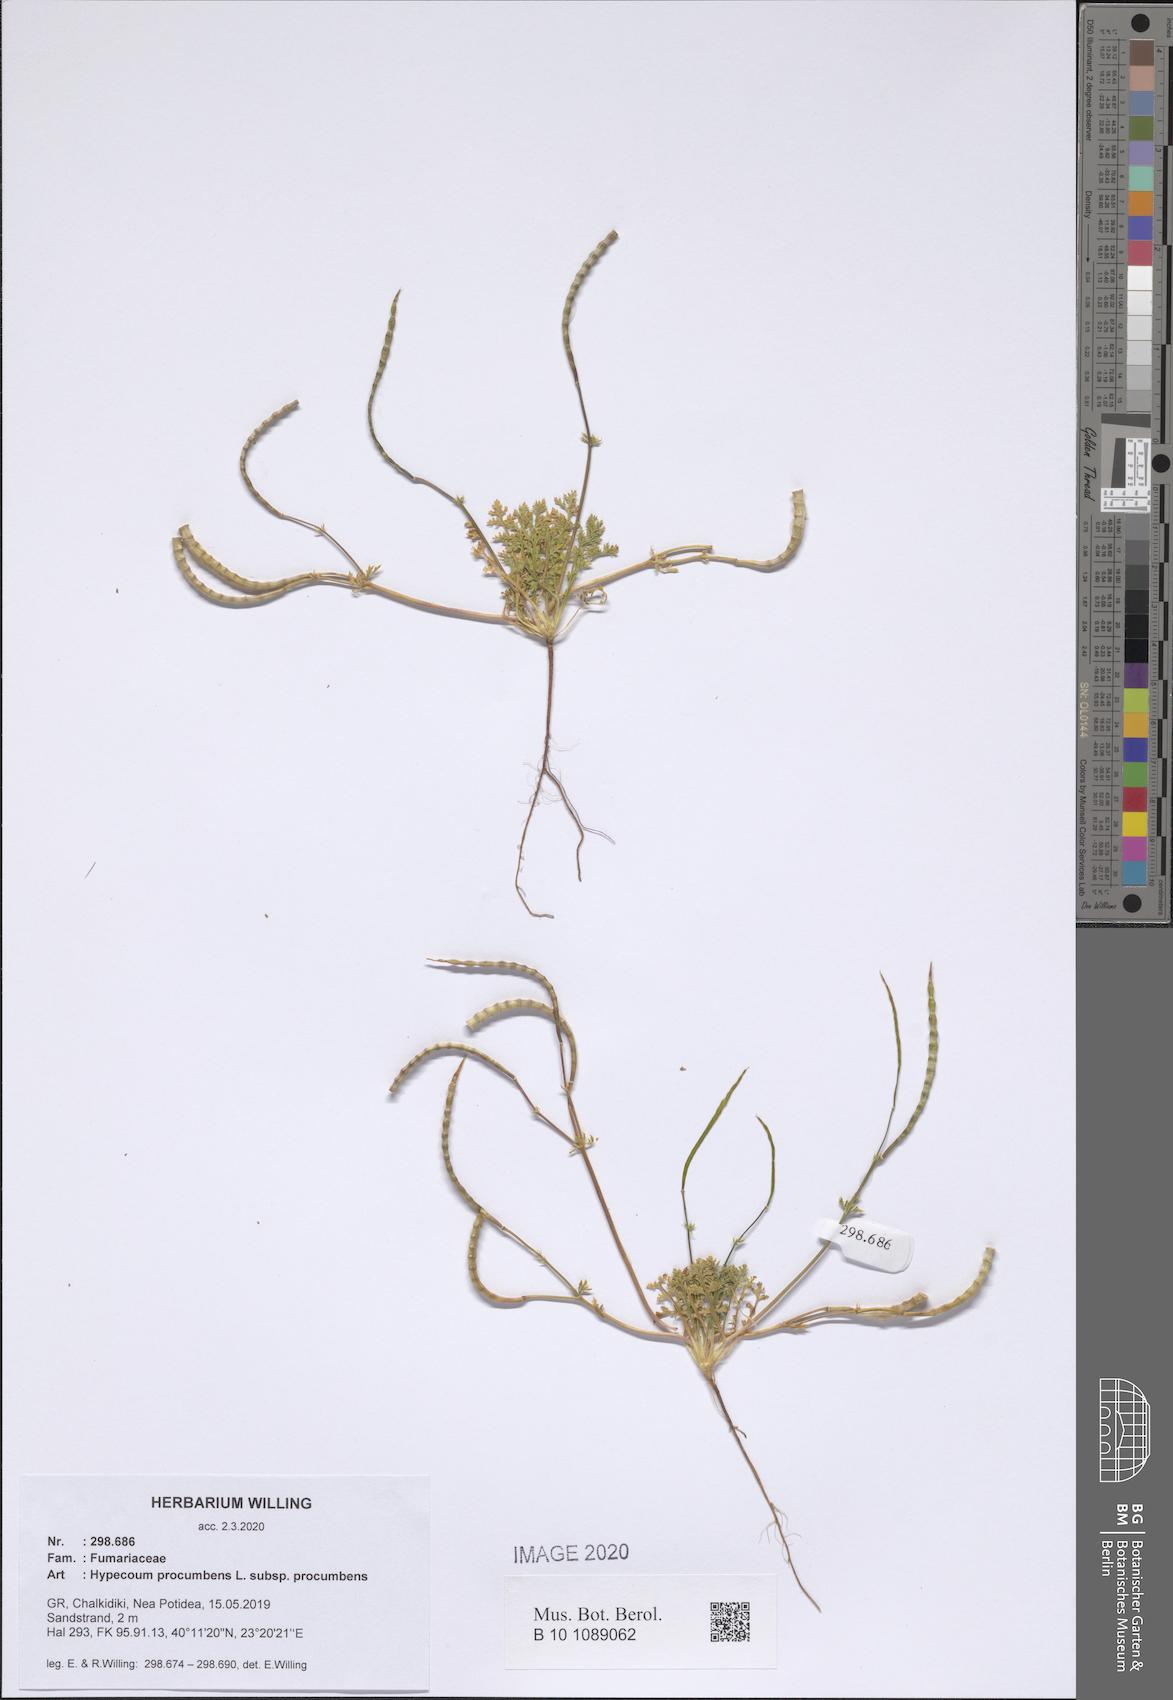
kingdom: Plantae
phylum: Tracheophyta
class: Magnoliopsida
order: Ranunculales
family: Papaveraceae
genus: Hypecoum
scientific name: Hypecoum procumbens
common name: Procumbent hypecoum
